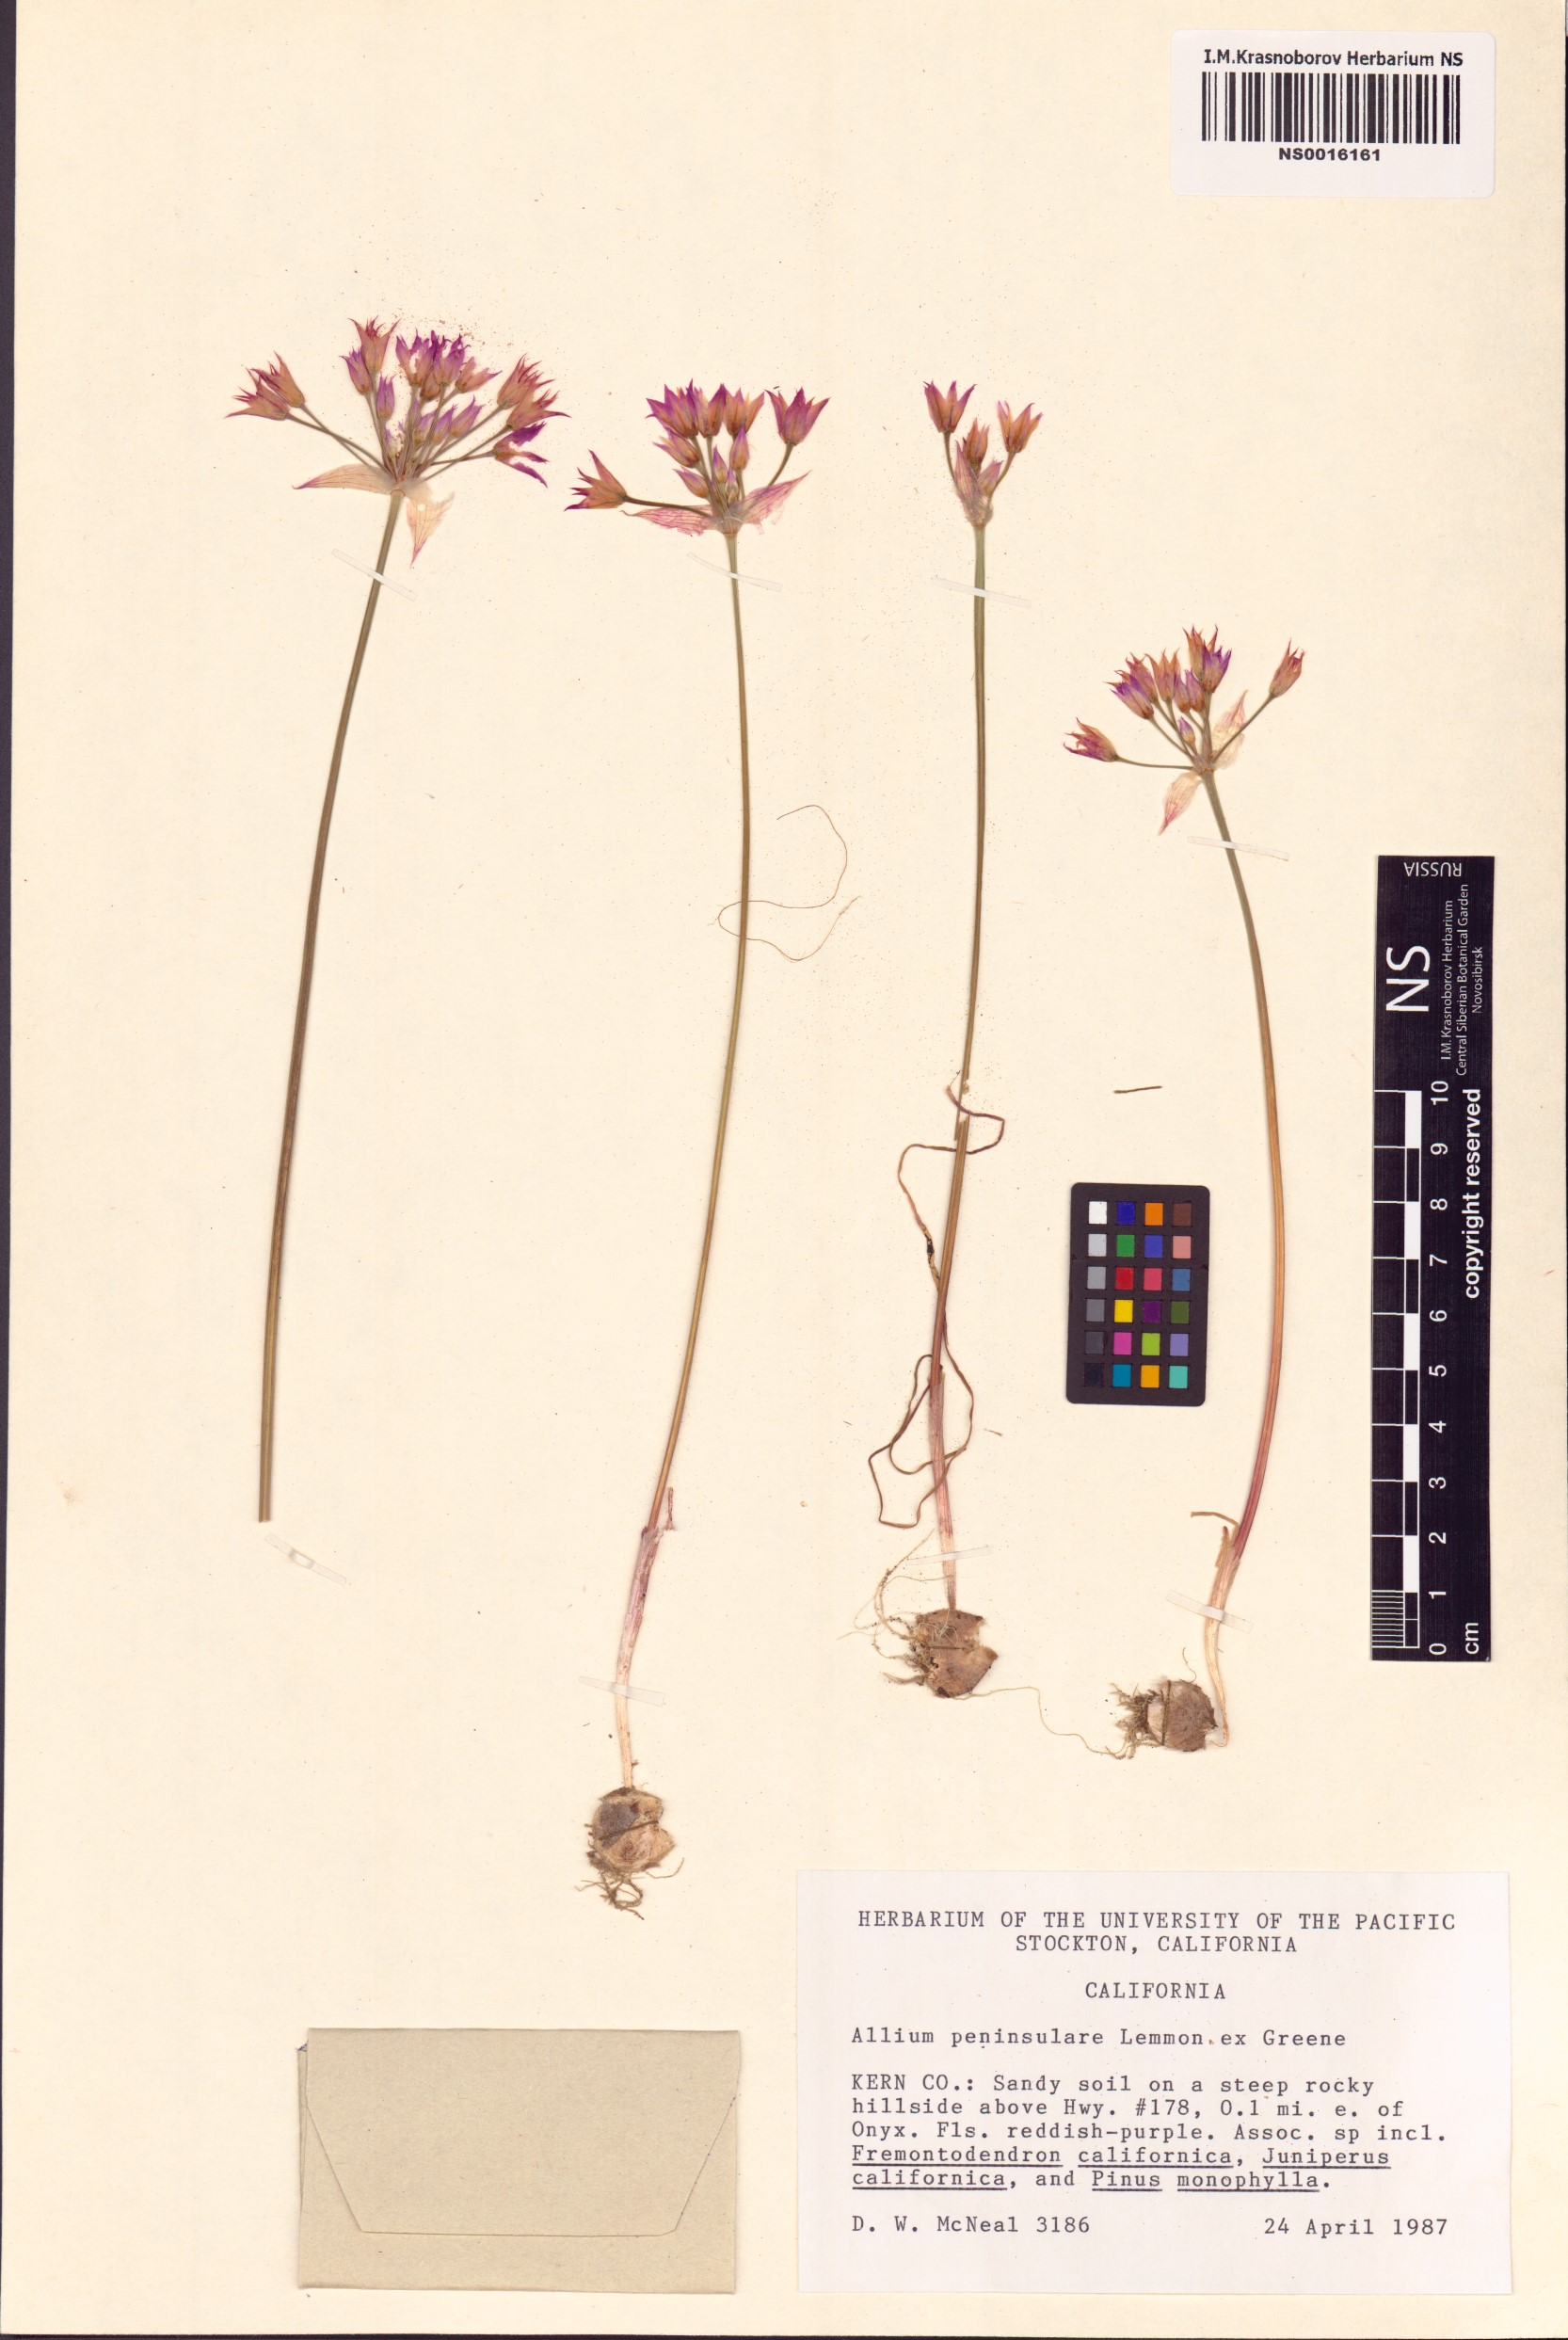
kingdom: Plantae
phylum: Tracheophyta
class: Liliopsida
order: Asparagales
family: Amaryllidaceae
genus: Allium
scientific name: Allium peninsulare
